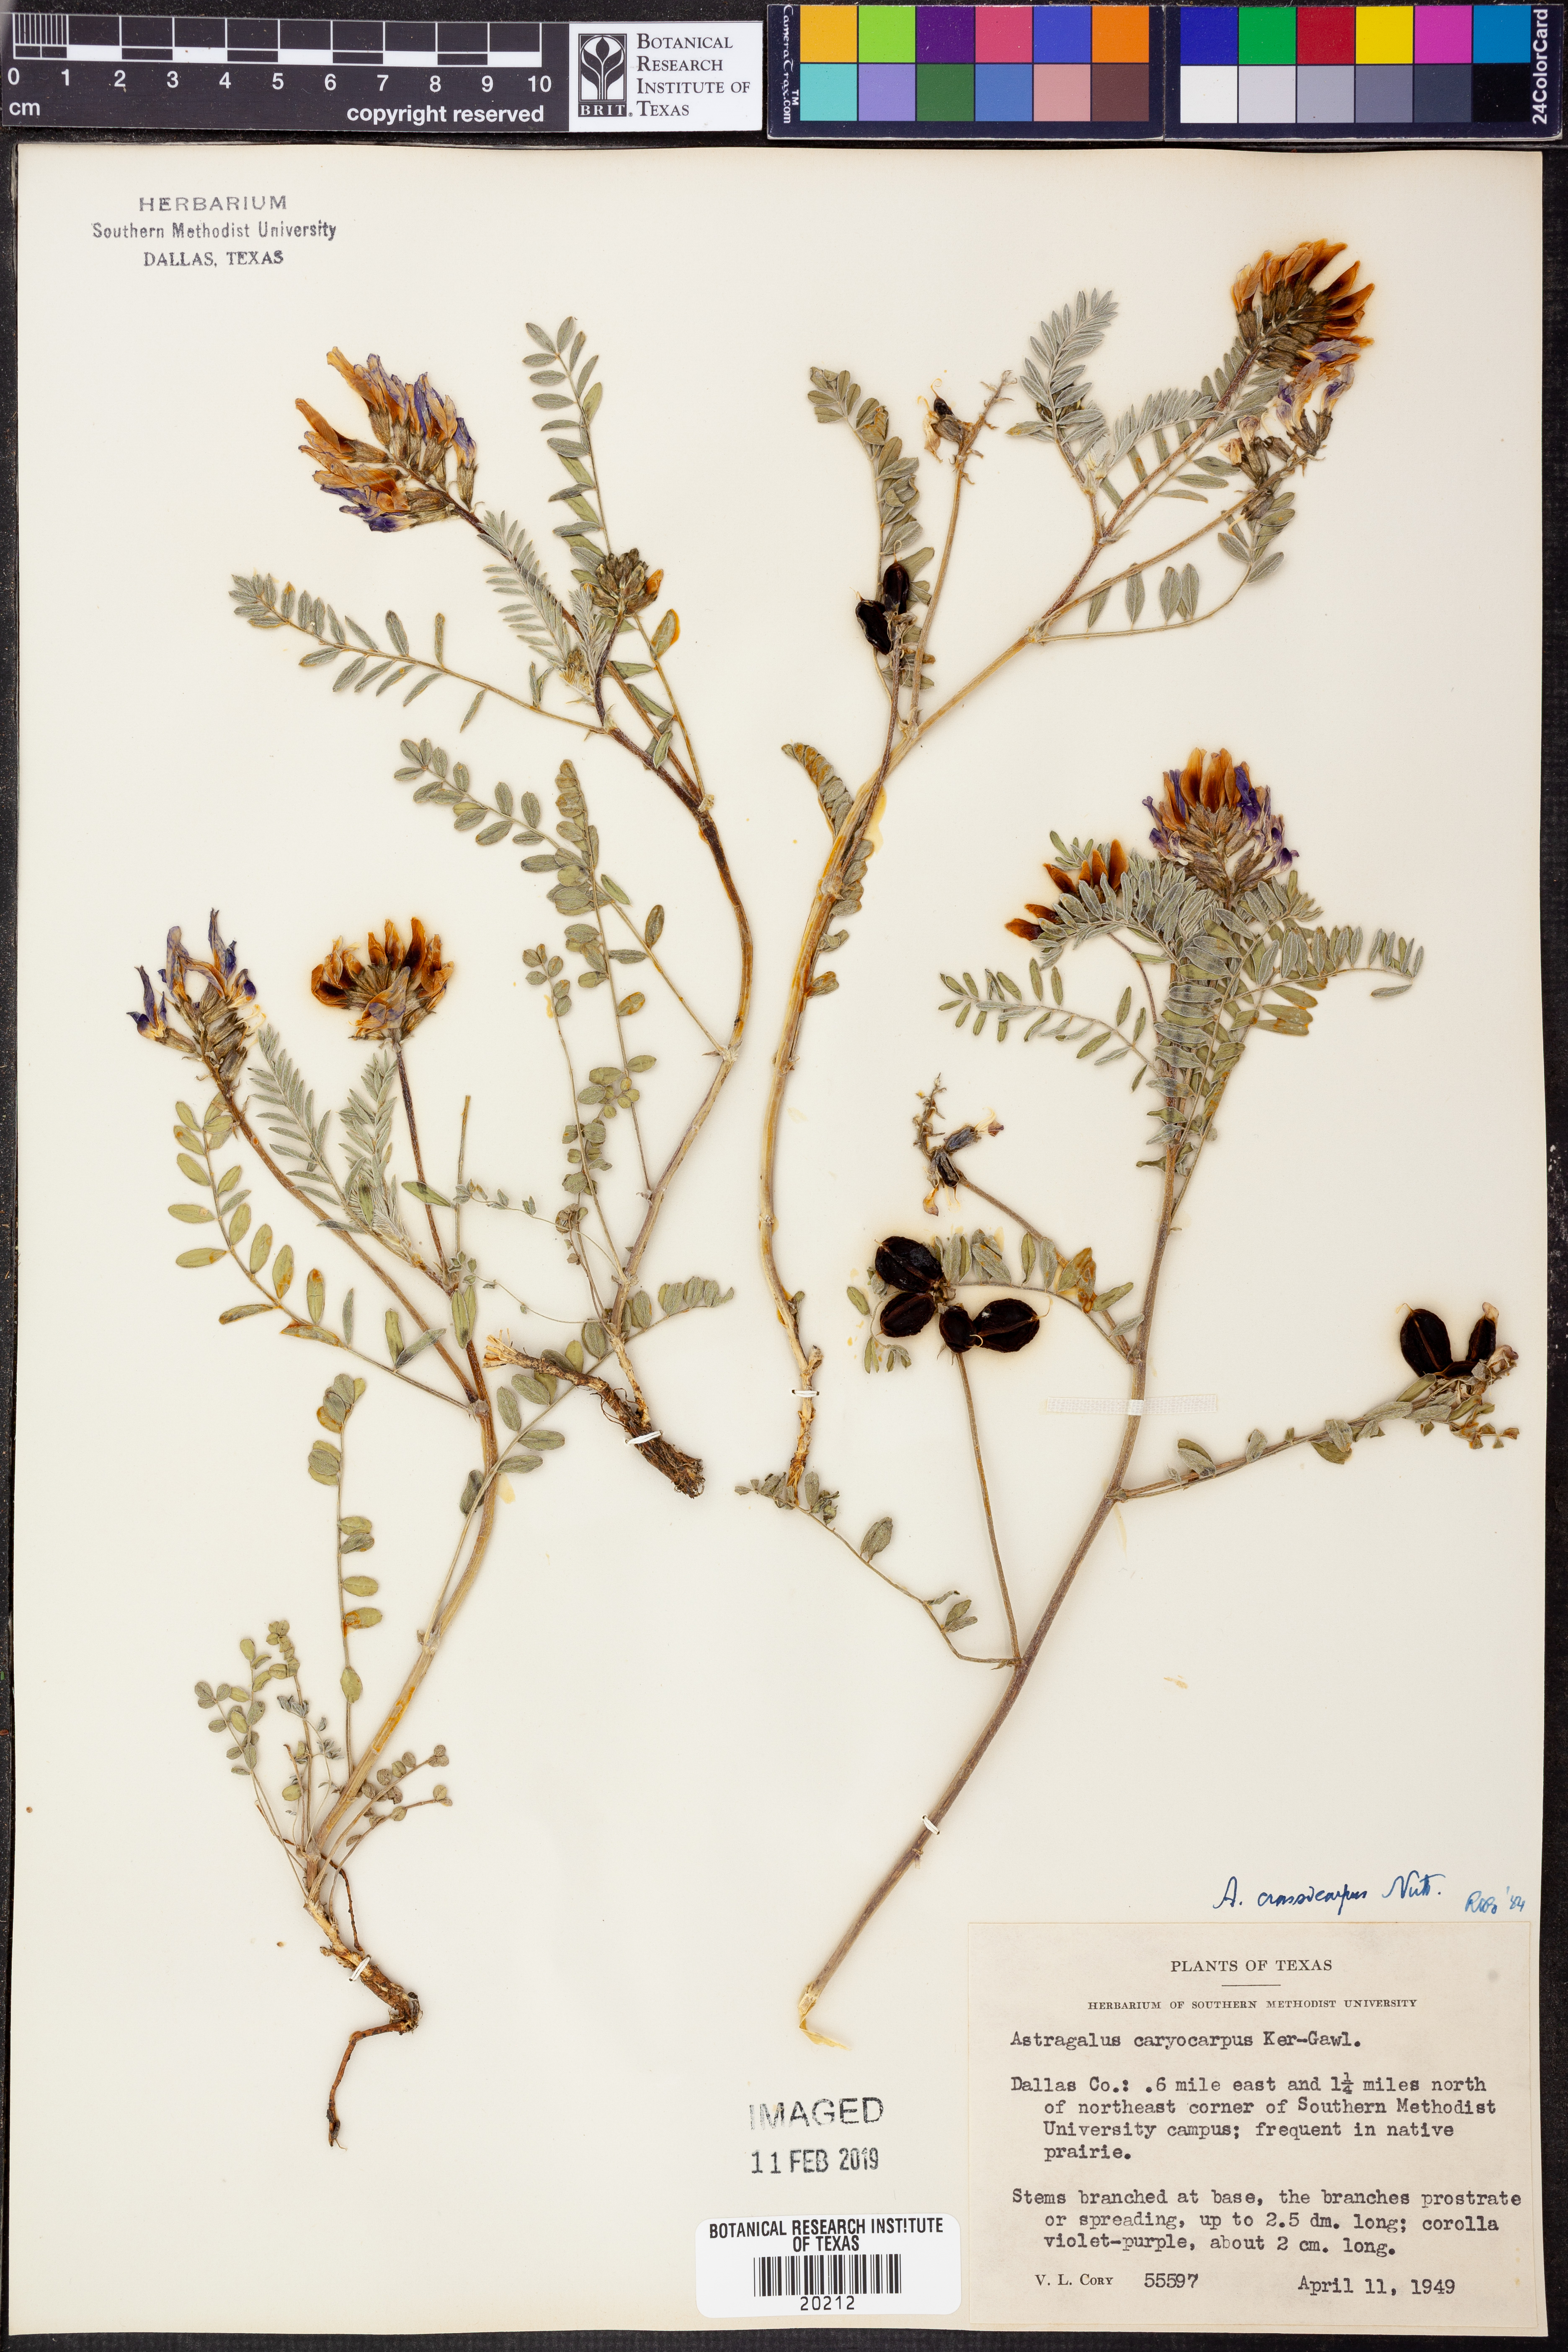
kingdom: Plantae
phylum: Tracheophyta
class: Magnoliopsida
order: Fabales
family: Fabaceae
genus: Astragalus
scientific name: Astragalus crassicarpus
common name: Ground-plum milk-vetch
